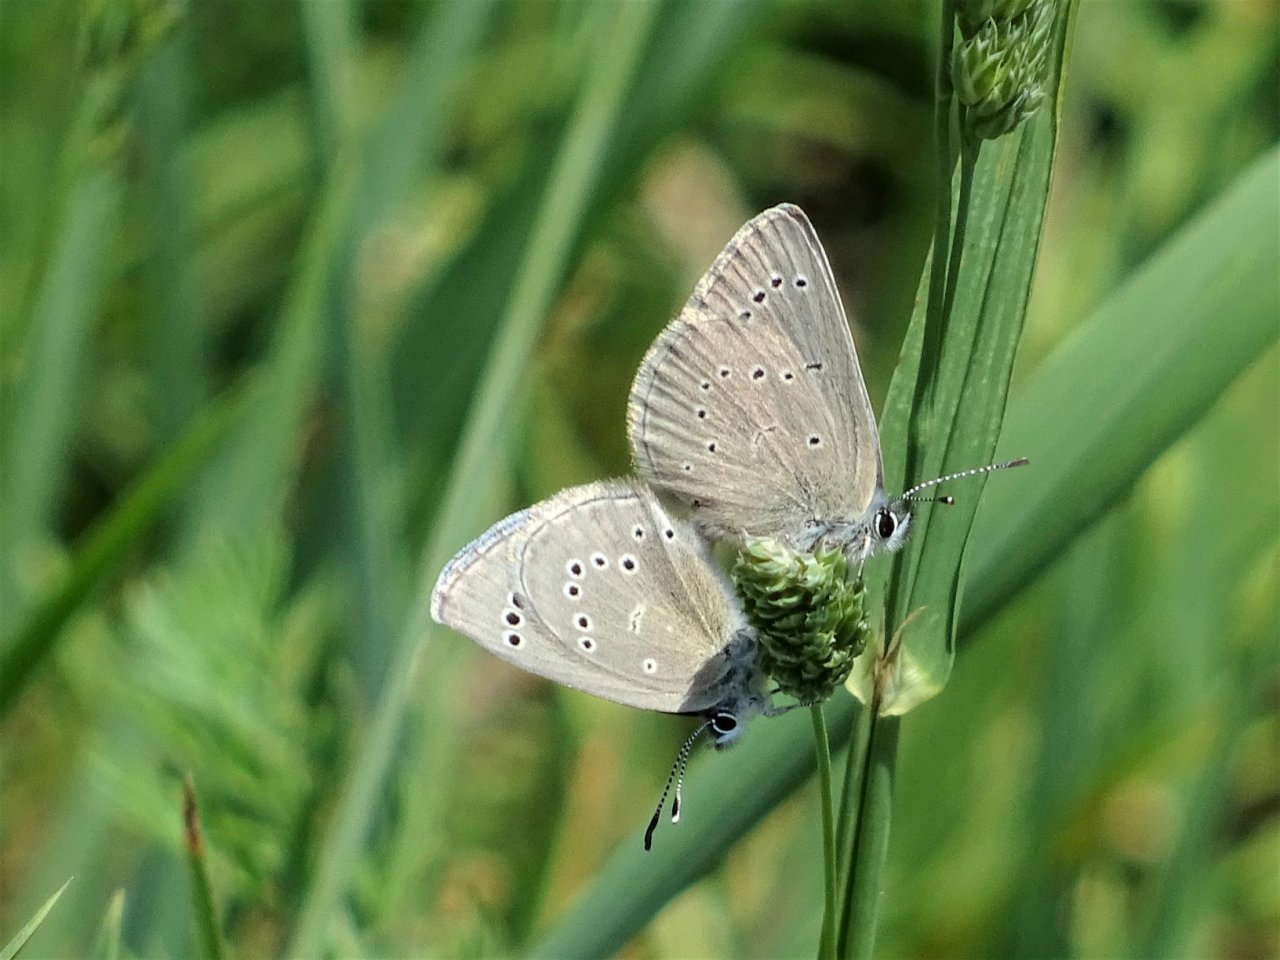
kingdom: Animalia
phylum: Arthropoda
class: Insecta
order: Lepidoptera
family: Lycaenidae
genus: Glaucopsyche
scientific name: Glaucopsyche lygdamus
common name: Silvery Blue
